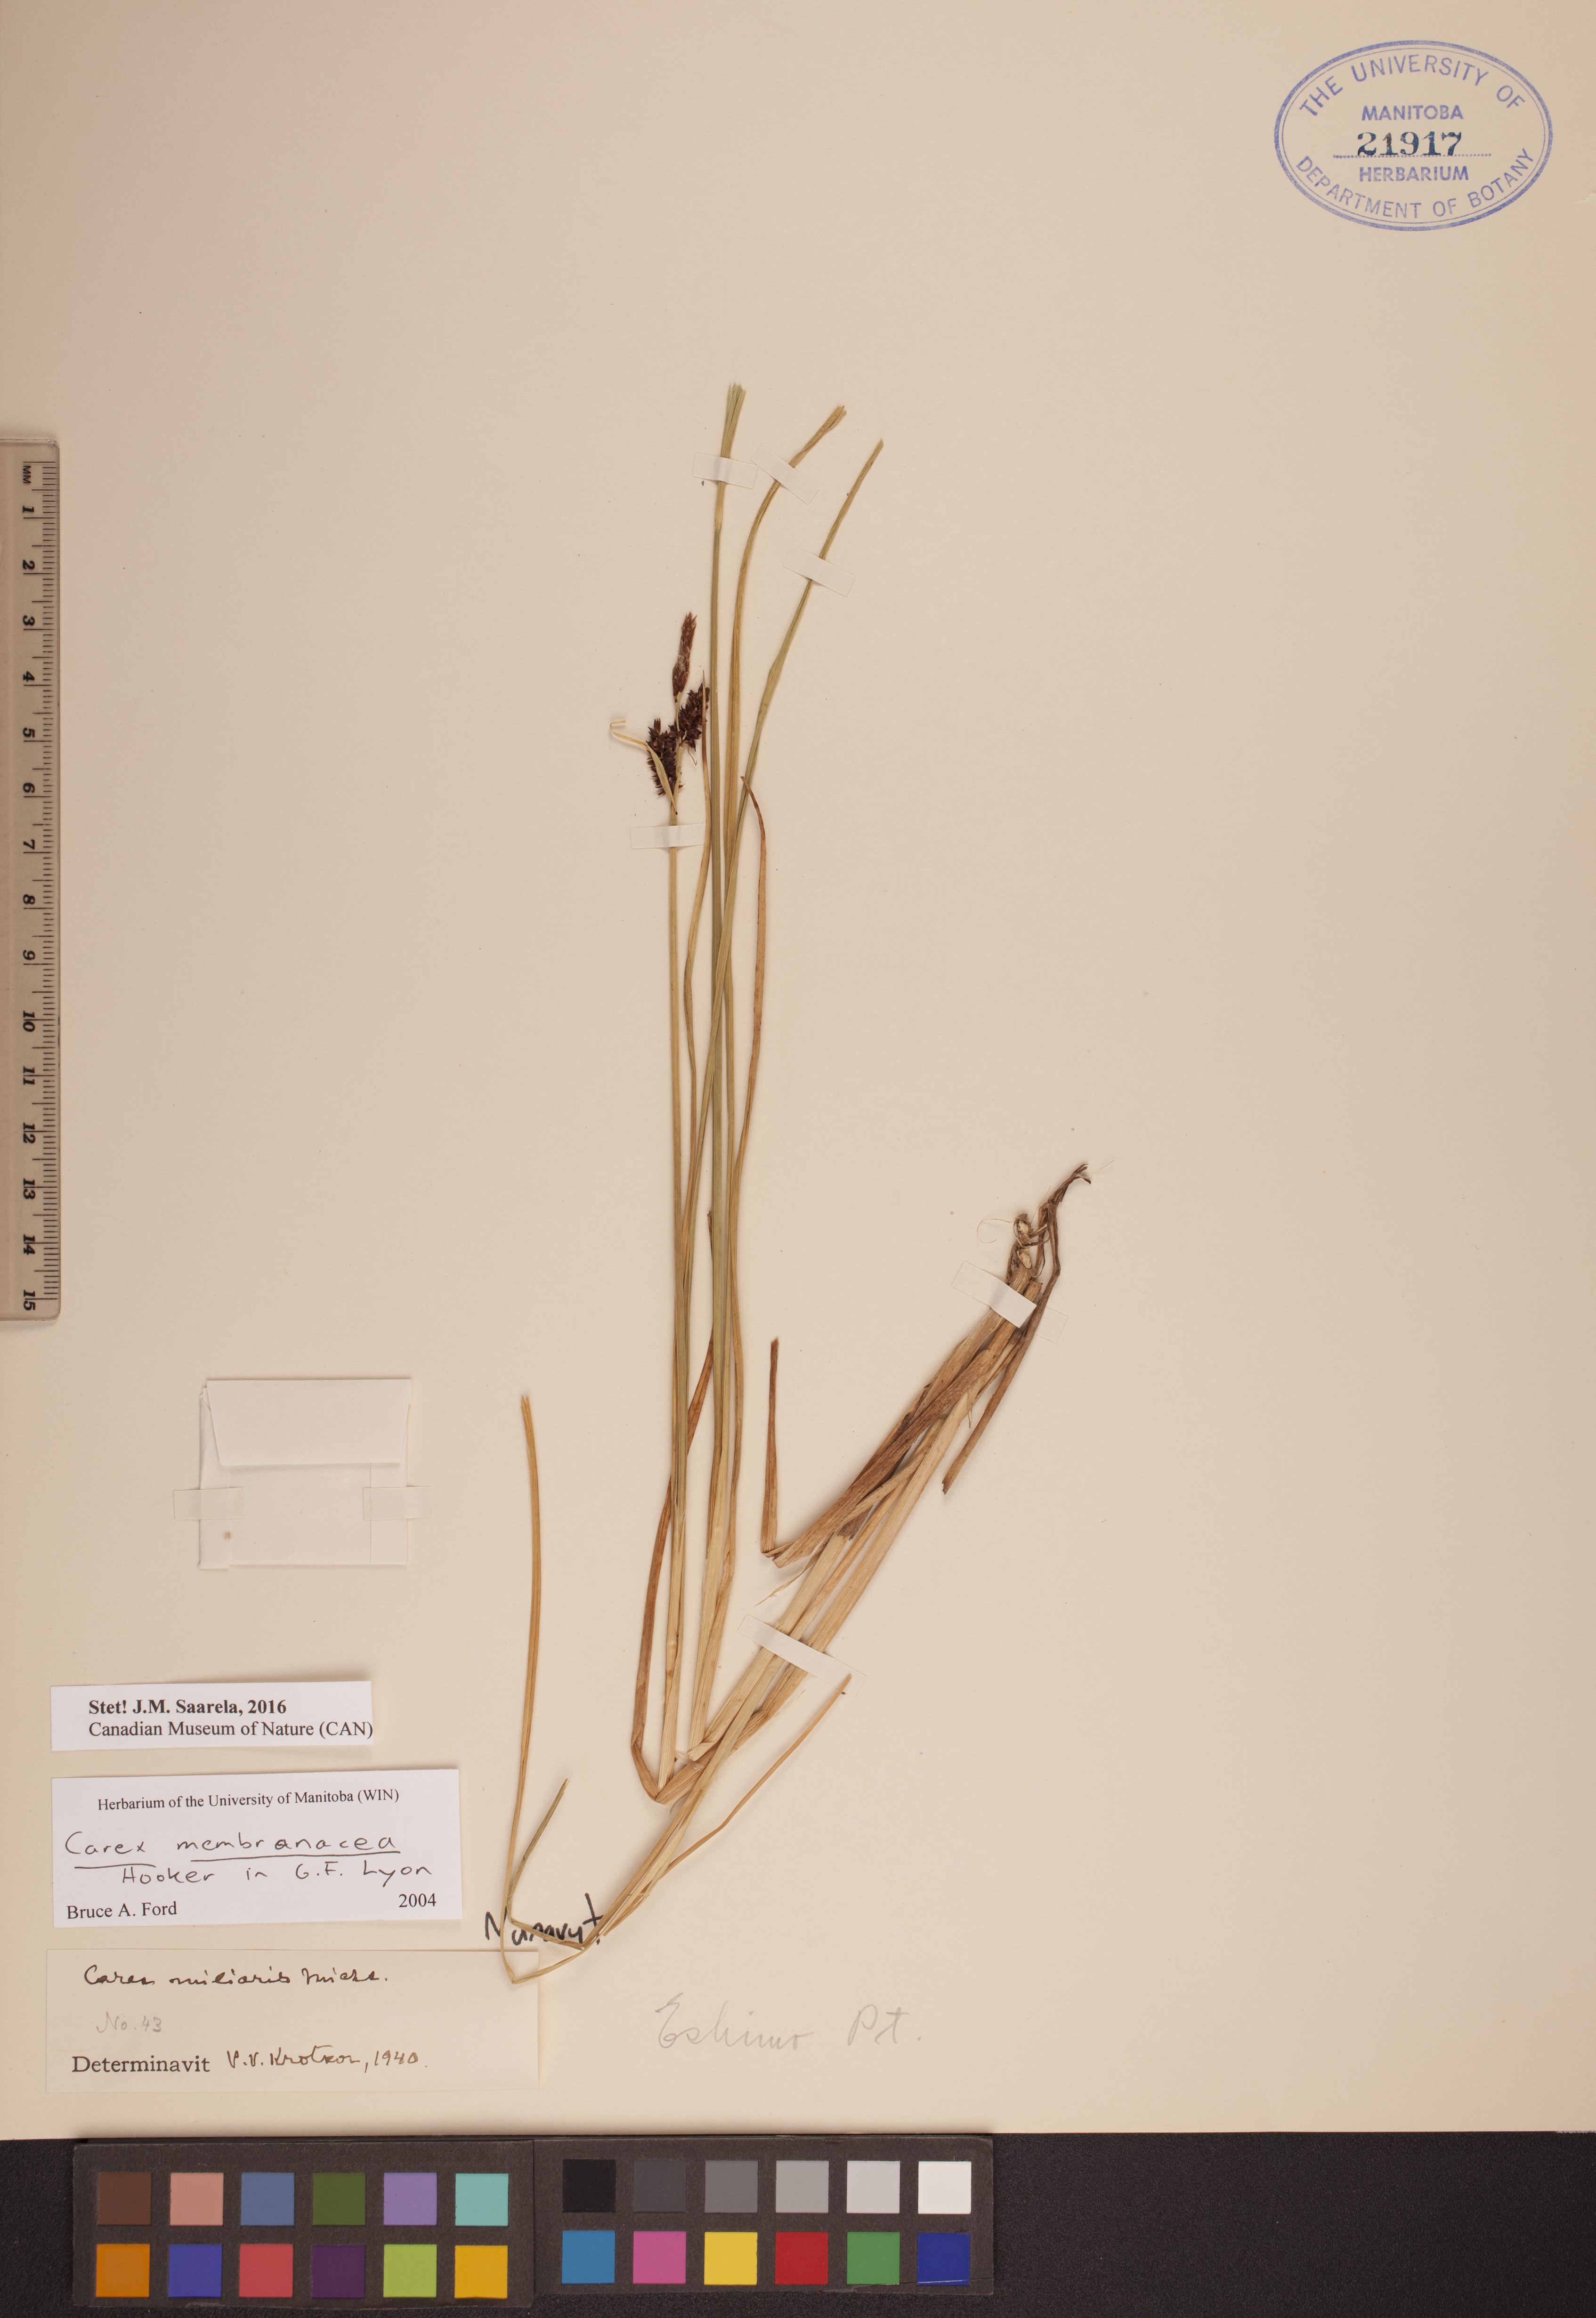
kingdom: Plantae
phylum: Tracheophyta
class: Liliopsida
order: Poales
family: Cyperaceae
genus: Carex
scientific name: Carex membranacea
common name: Fragile sedge
